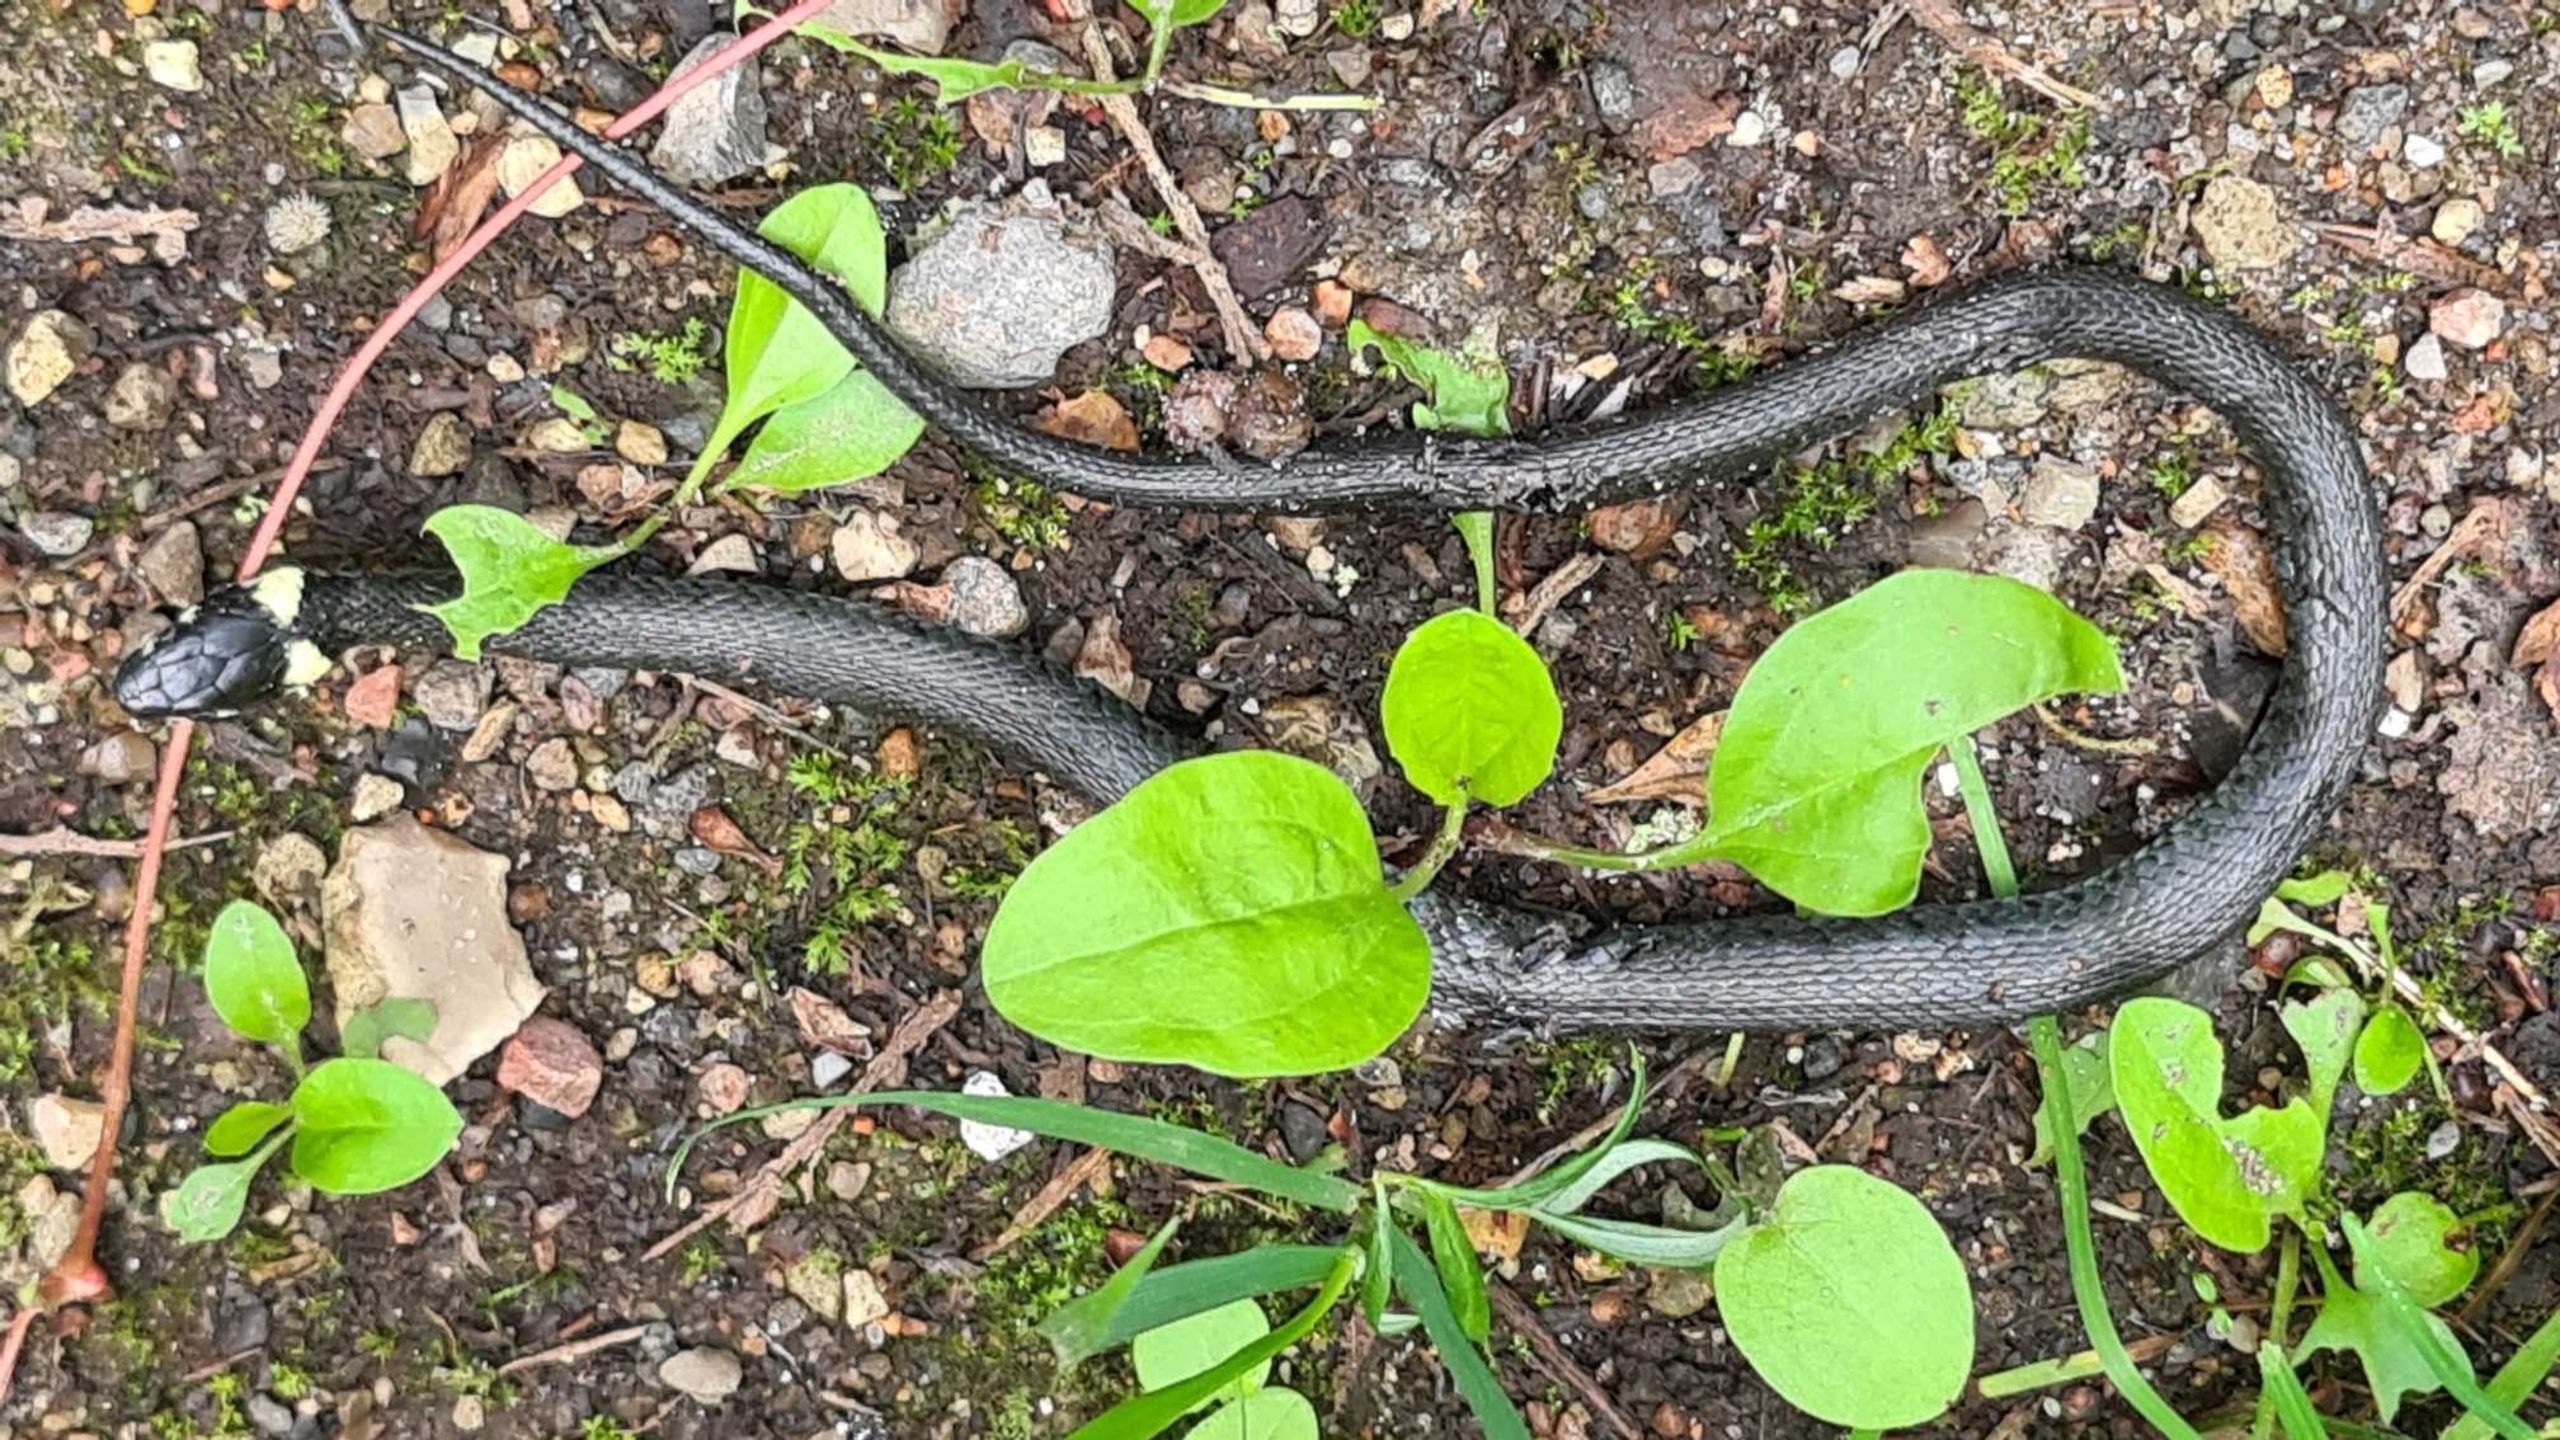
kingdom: Animalia
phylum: Chordata
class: Squamata
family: Colubridae
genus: Natrix
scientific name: Natrix natrix
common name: Snog
